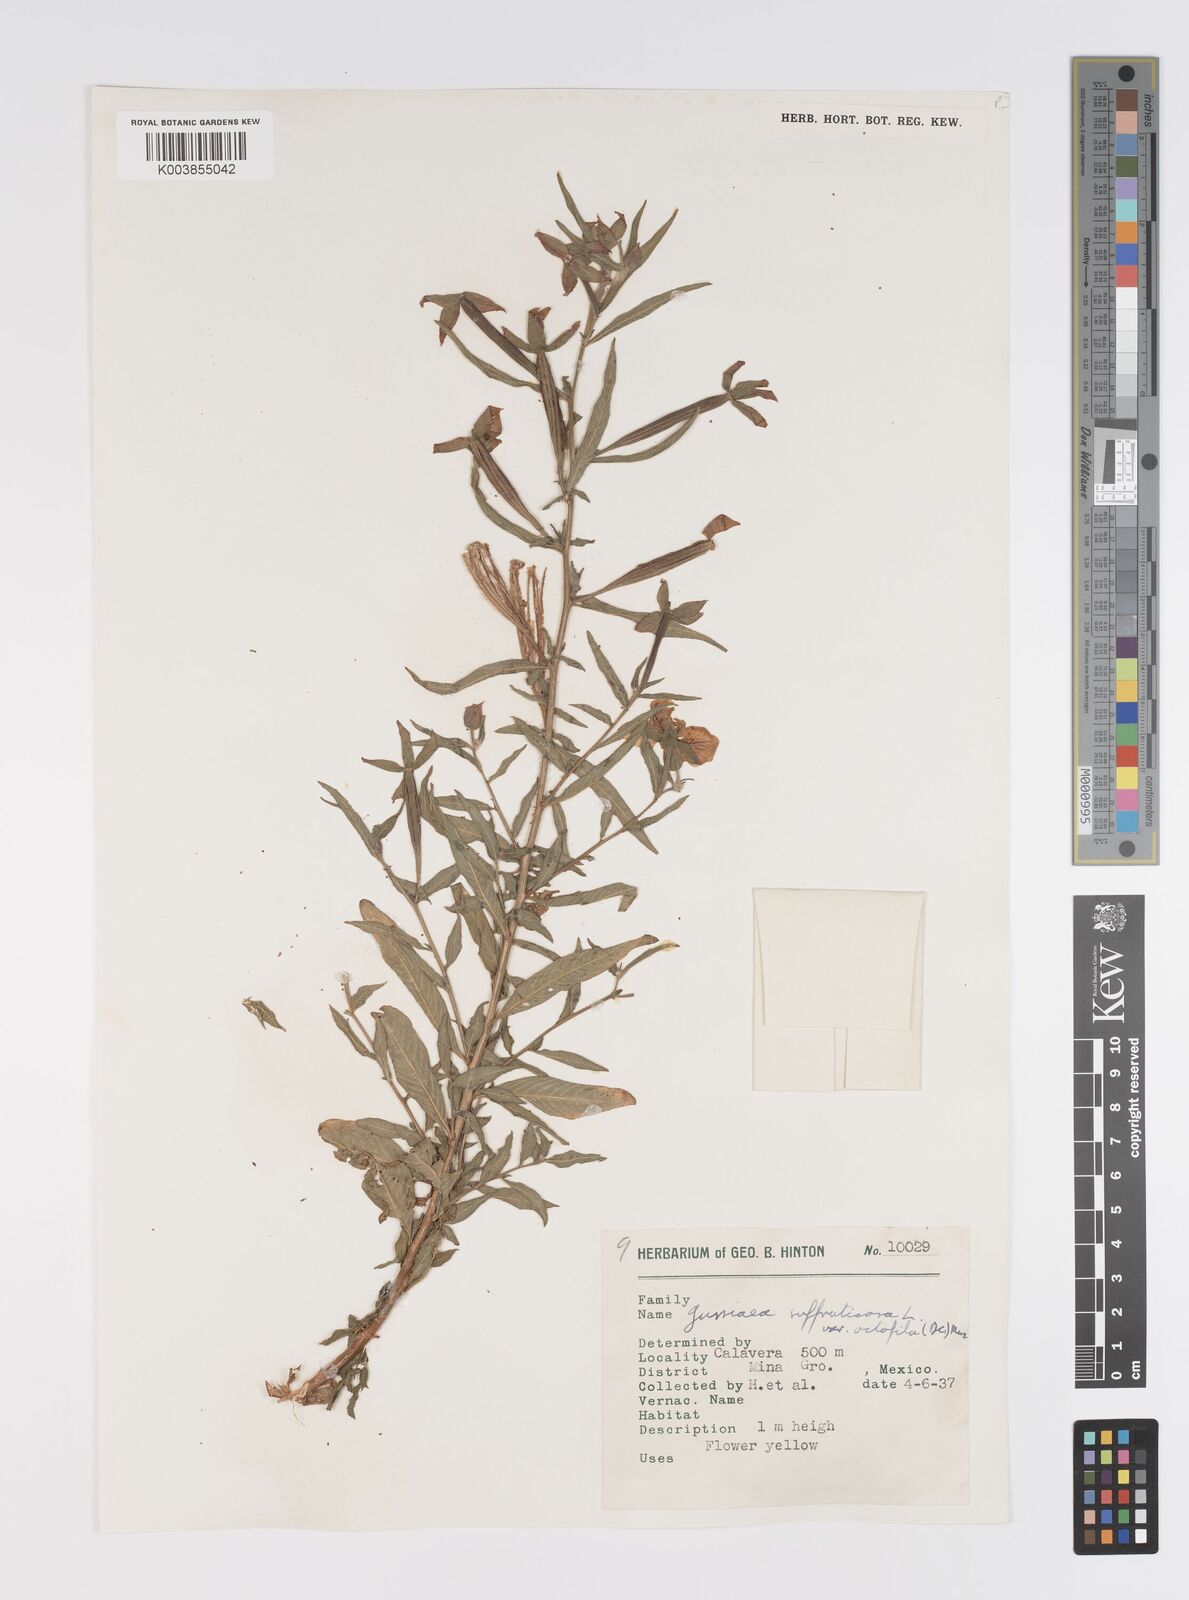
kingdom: Plantae
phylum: Tracheophyta
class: Magnoliopsida
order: Myrtales
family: Onagraceae
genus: Ludwigia
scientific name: Ludwigia octovalvis
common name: Water-primrose
